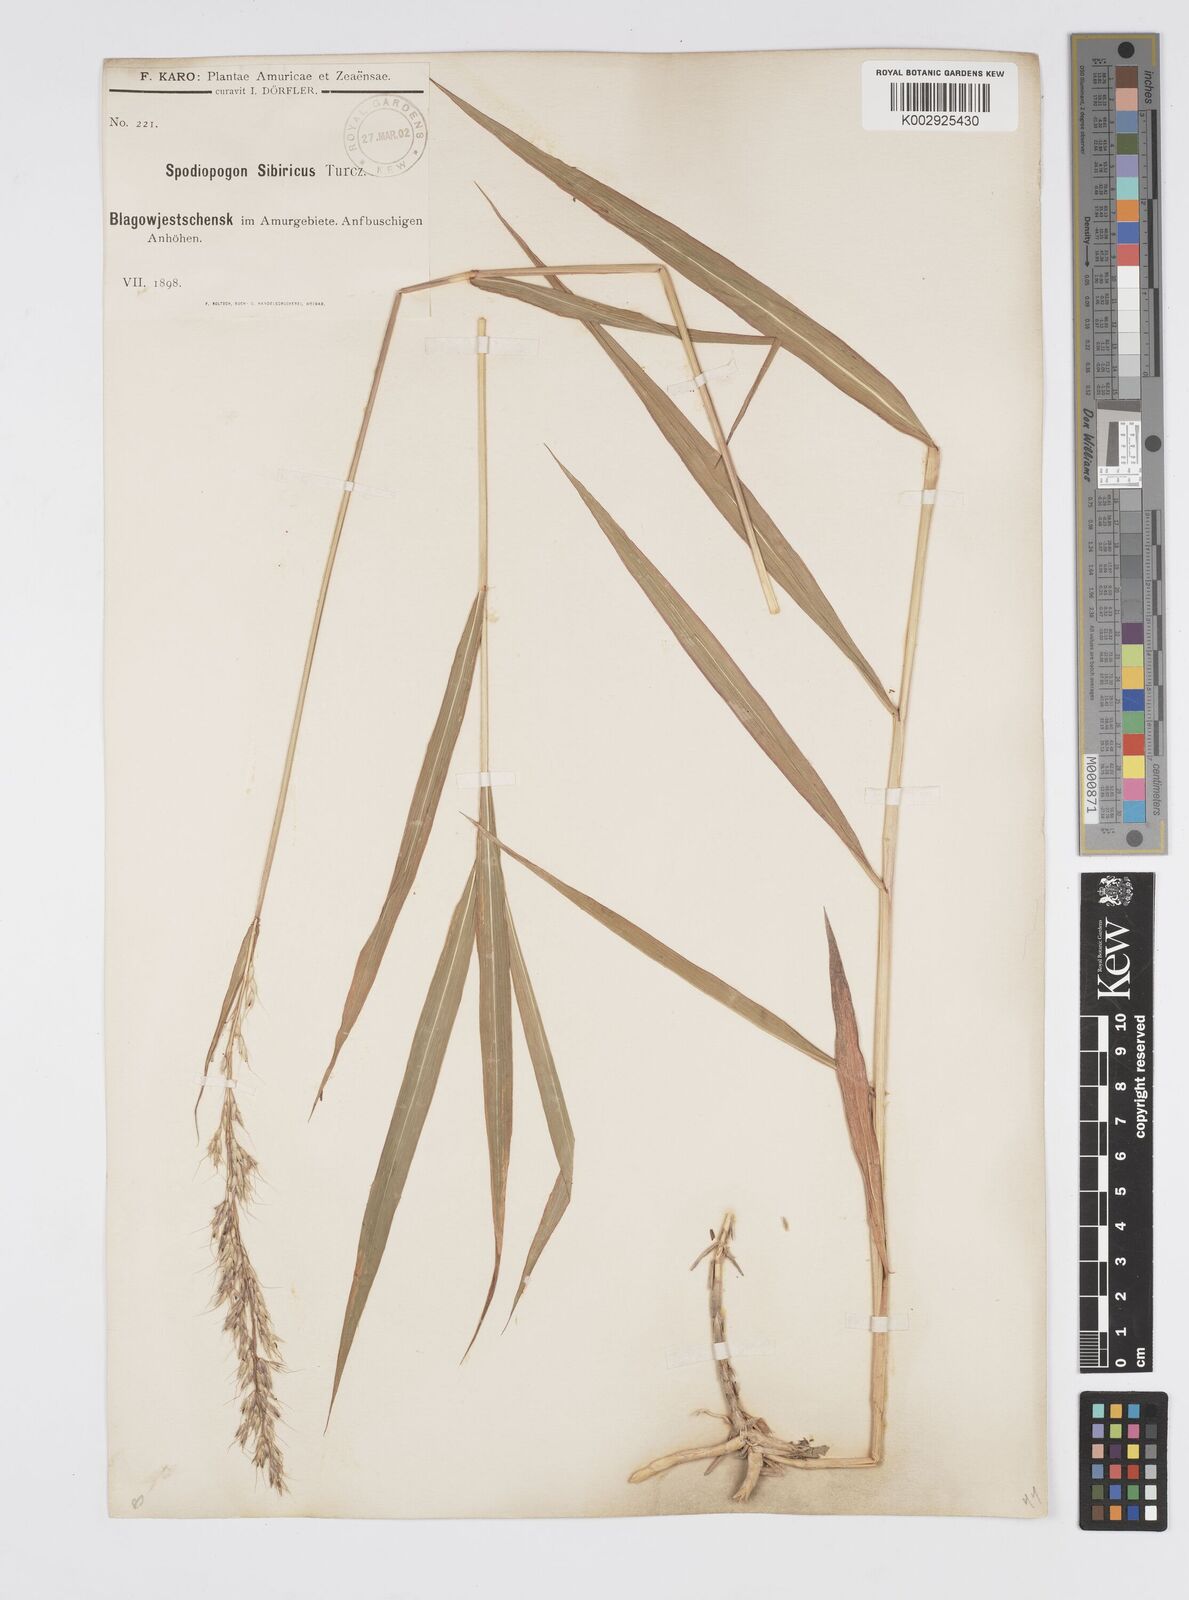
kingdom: Plantae
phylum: Tracheophyta
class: Liliopsida
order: Poales
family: Poaceae
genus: Spodiopogon
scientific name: Spodiopogon sibiricus
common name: Siberian graybeard
